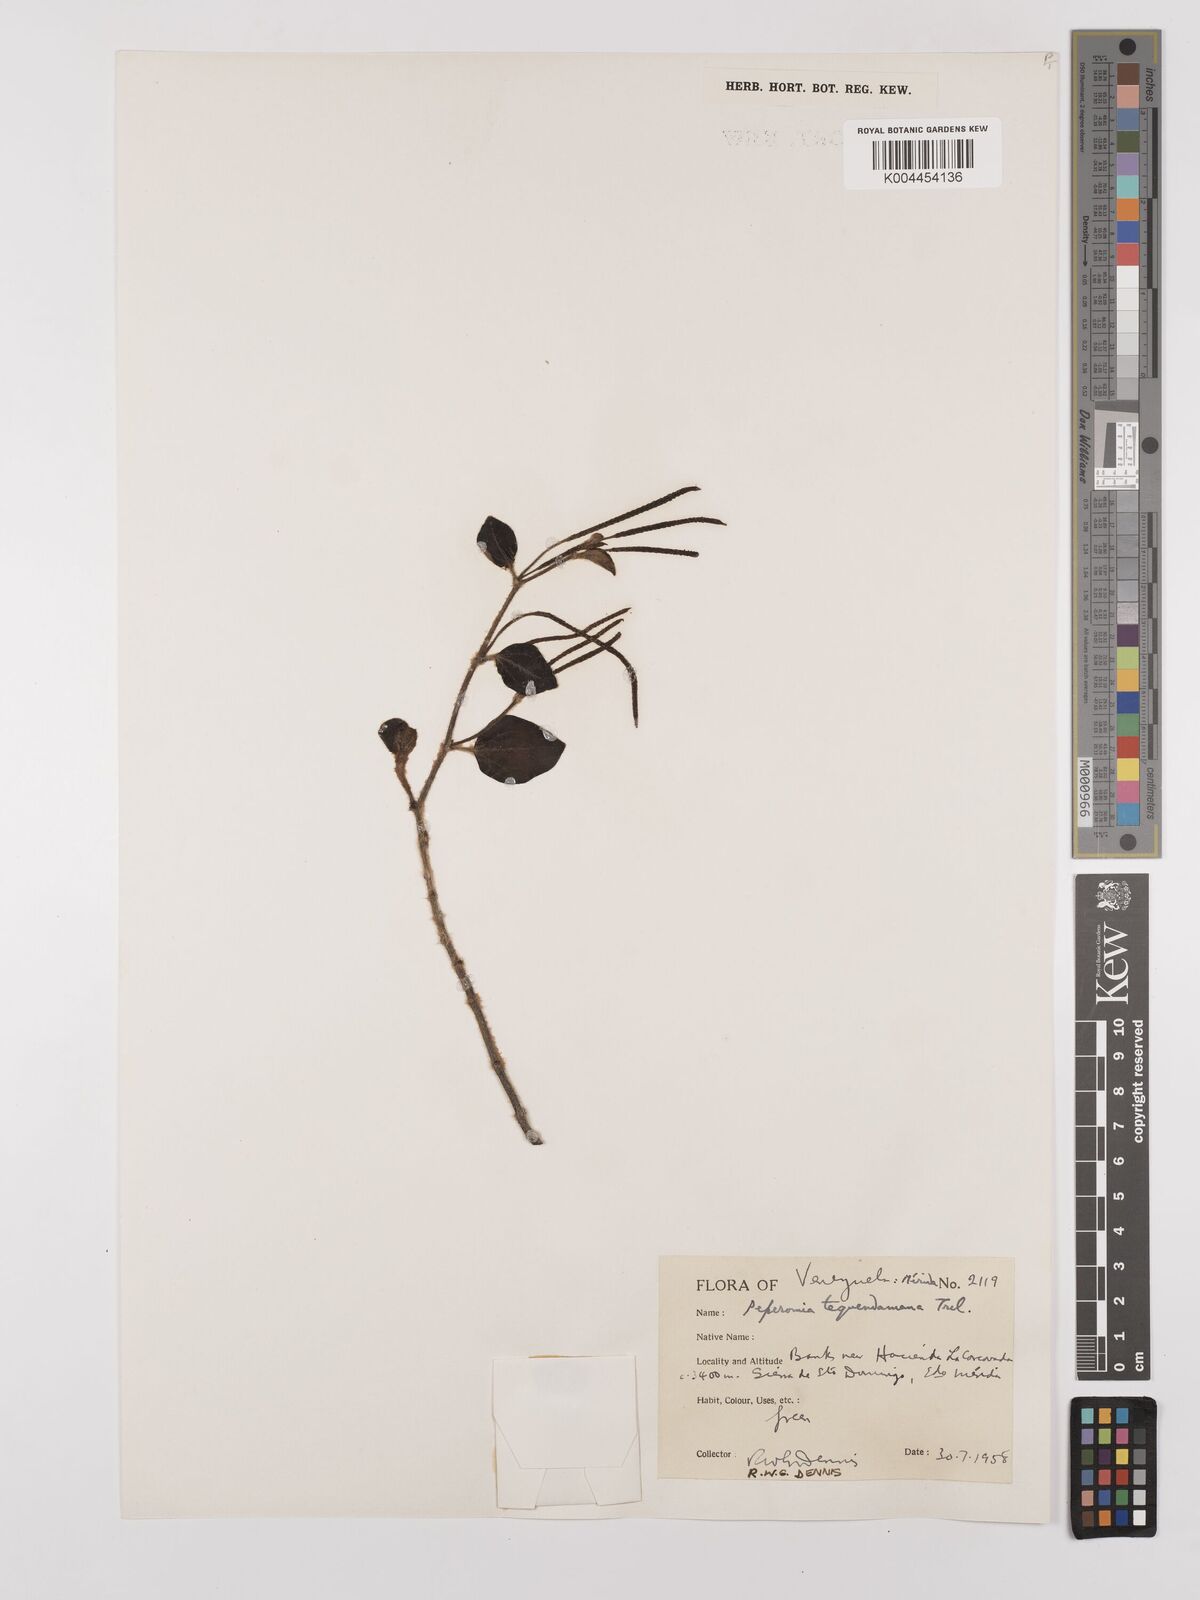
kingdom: Plantae
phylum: Tracheophyta
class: Magnoliopsida
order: Piperales
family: Piperaceae
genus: Peperomia
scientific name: Peperomia tequendamana
